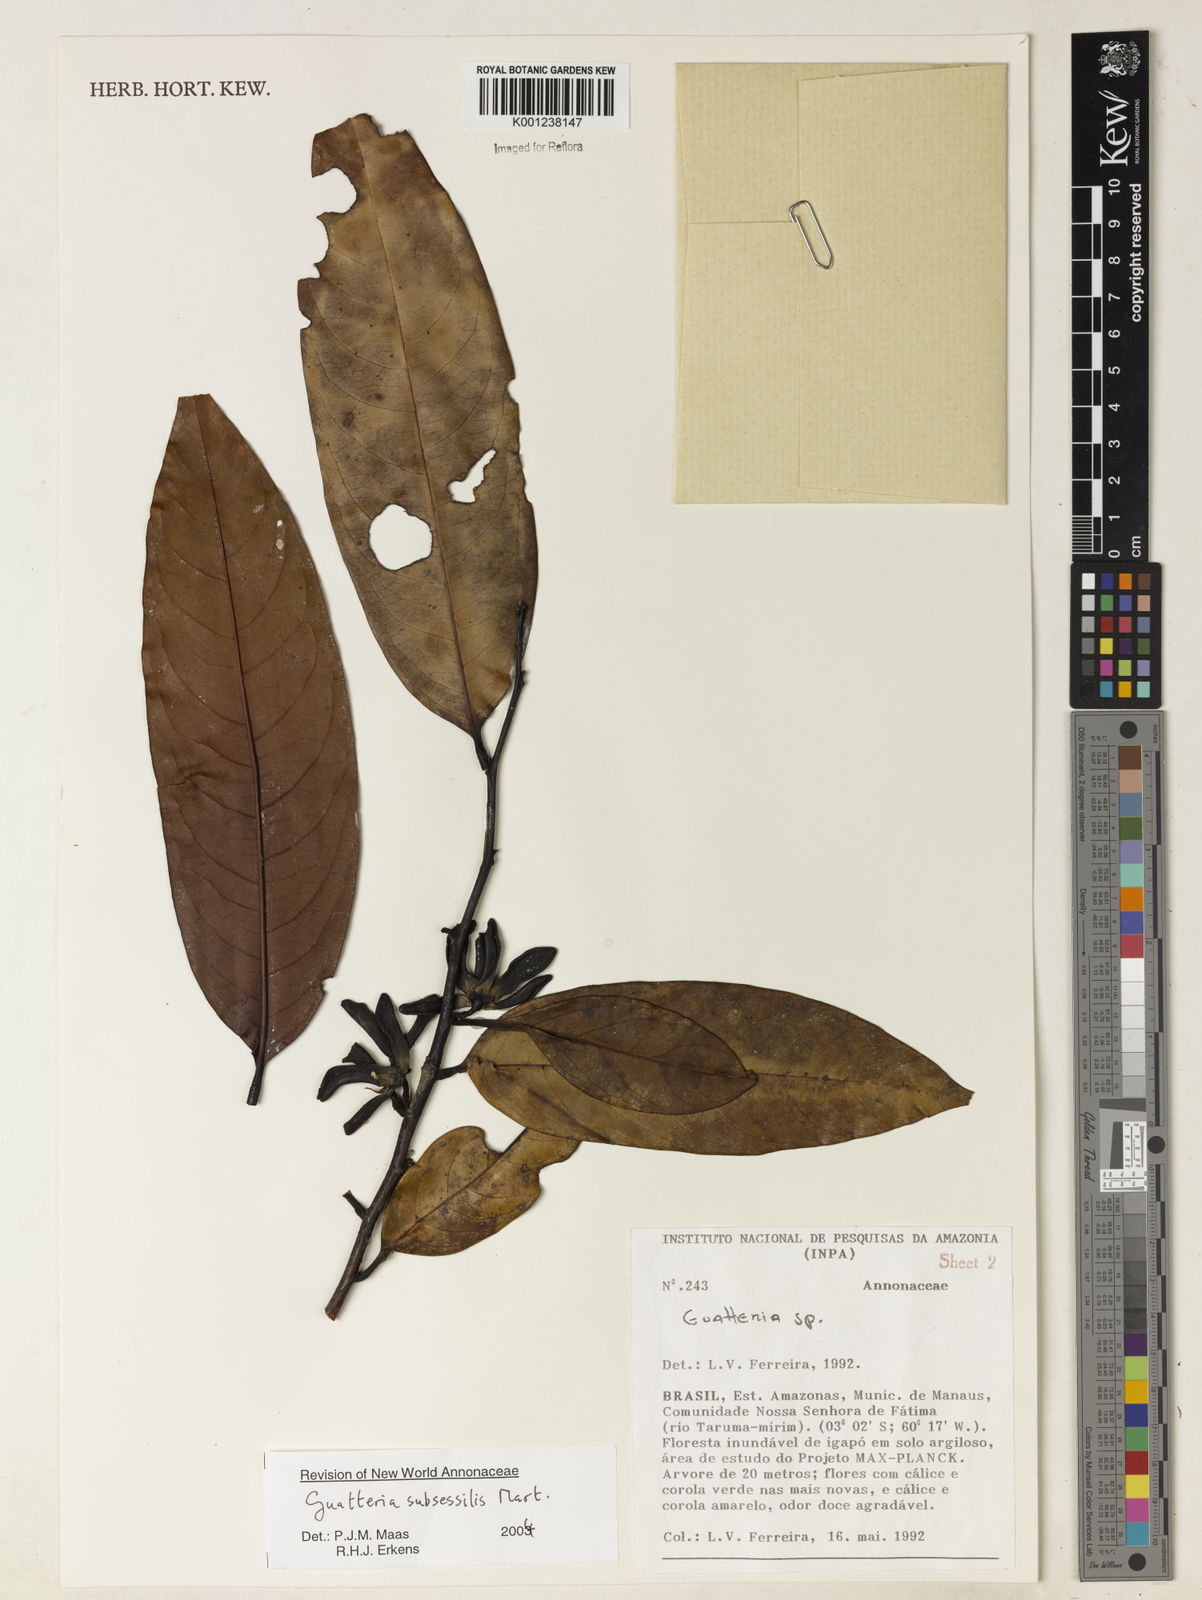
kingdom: Plantae
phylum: Tracheophyta
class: Magnoliopsida
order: Magnoliales
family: Annonaceae
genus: Guatteria
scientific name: Guatteria subsessilis
